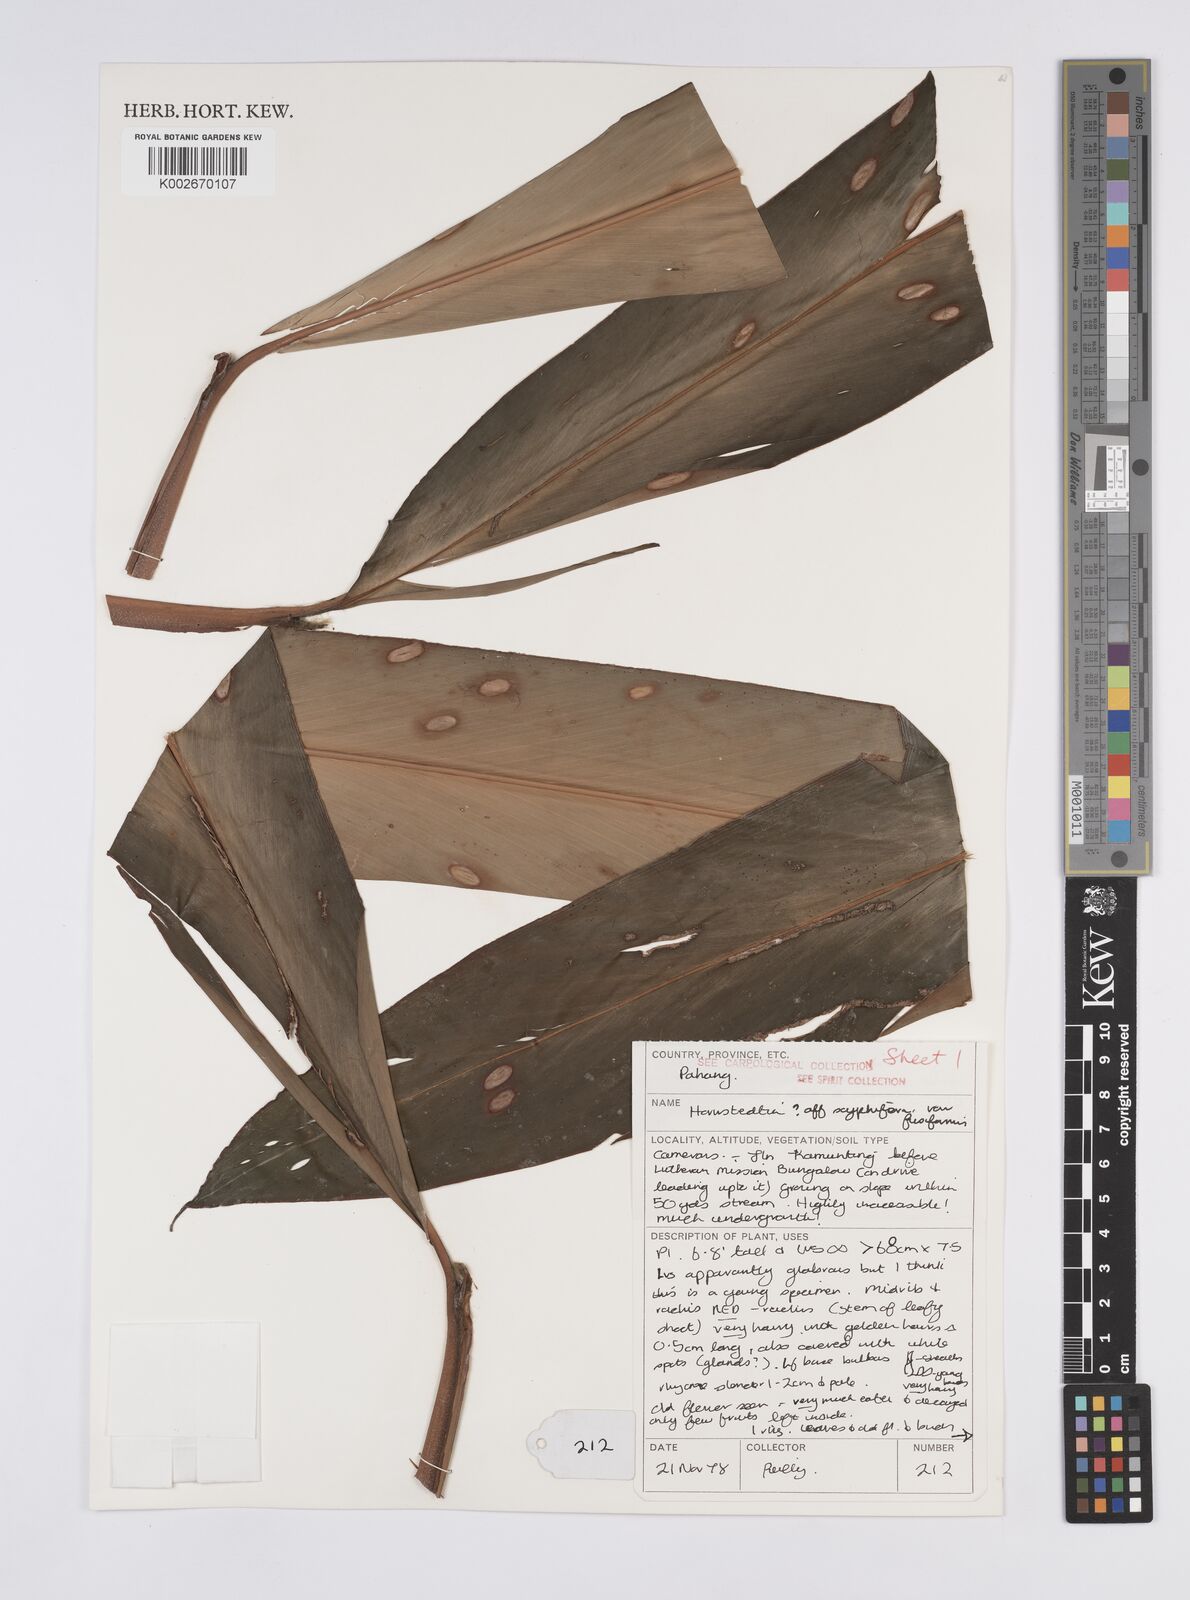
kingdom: Plantae
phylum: Tracheophyta
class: Liliopsida
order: Zingiberales
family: Zingiberaceae
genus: Hornstedtia
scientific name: Hornstedtia scyphifera
